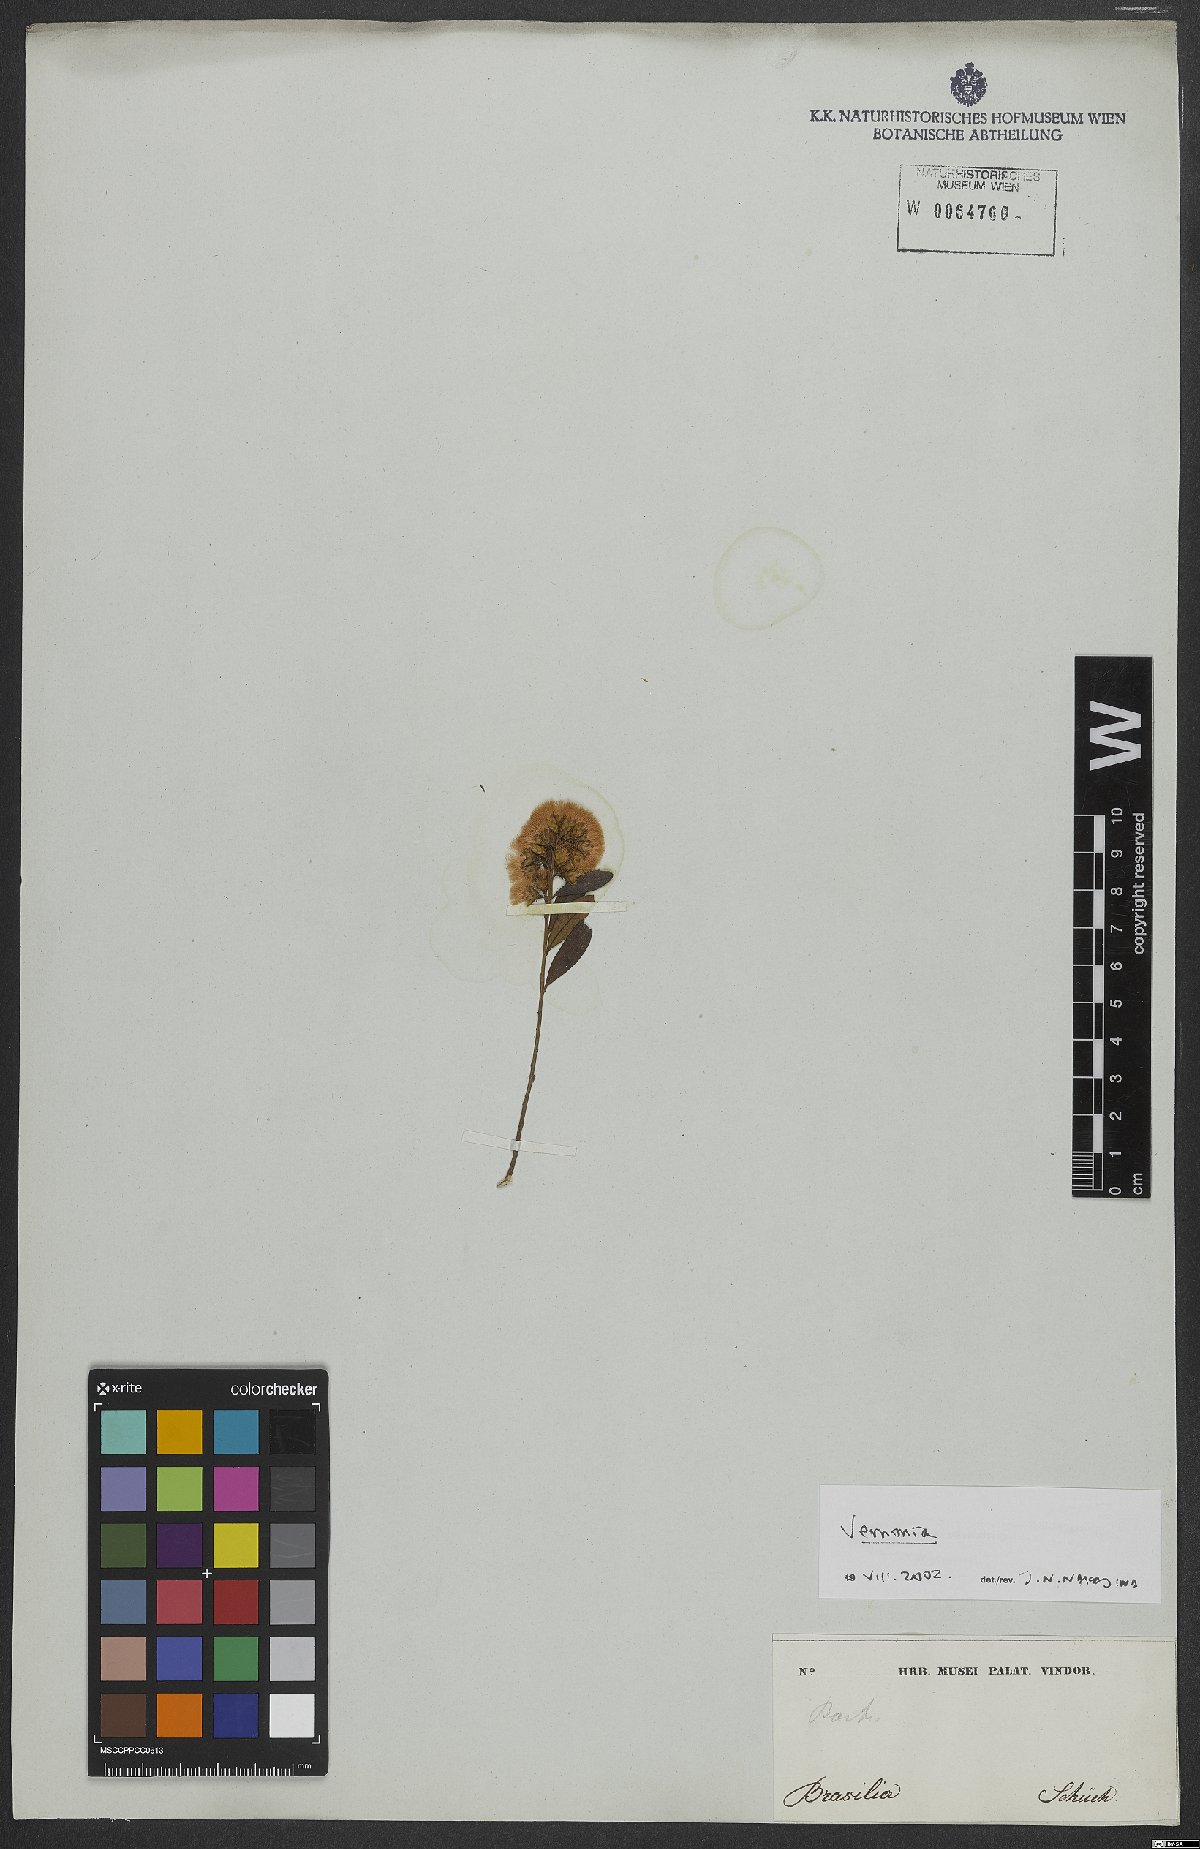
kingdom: Plantae
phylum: Tracheophyta
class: Magnoliopsida
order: Asterales
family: Asteraceae
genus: Vernonia
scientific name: Vernonia
